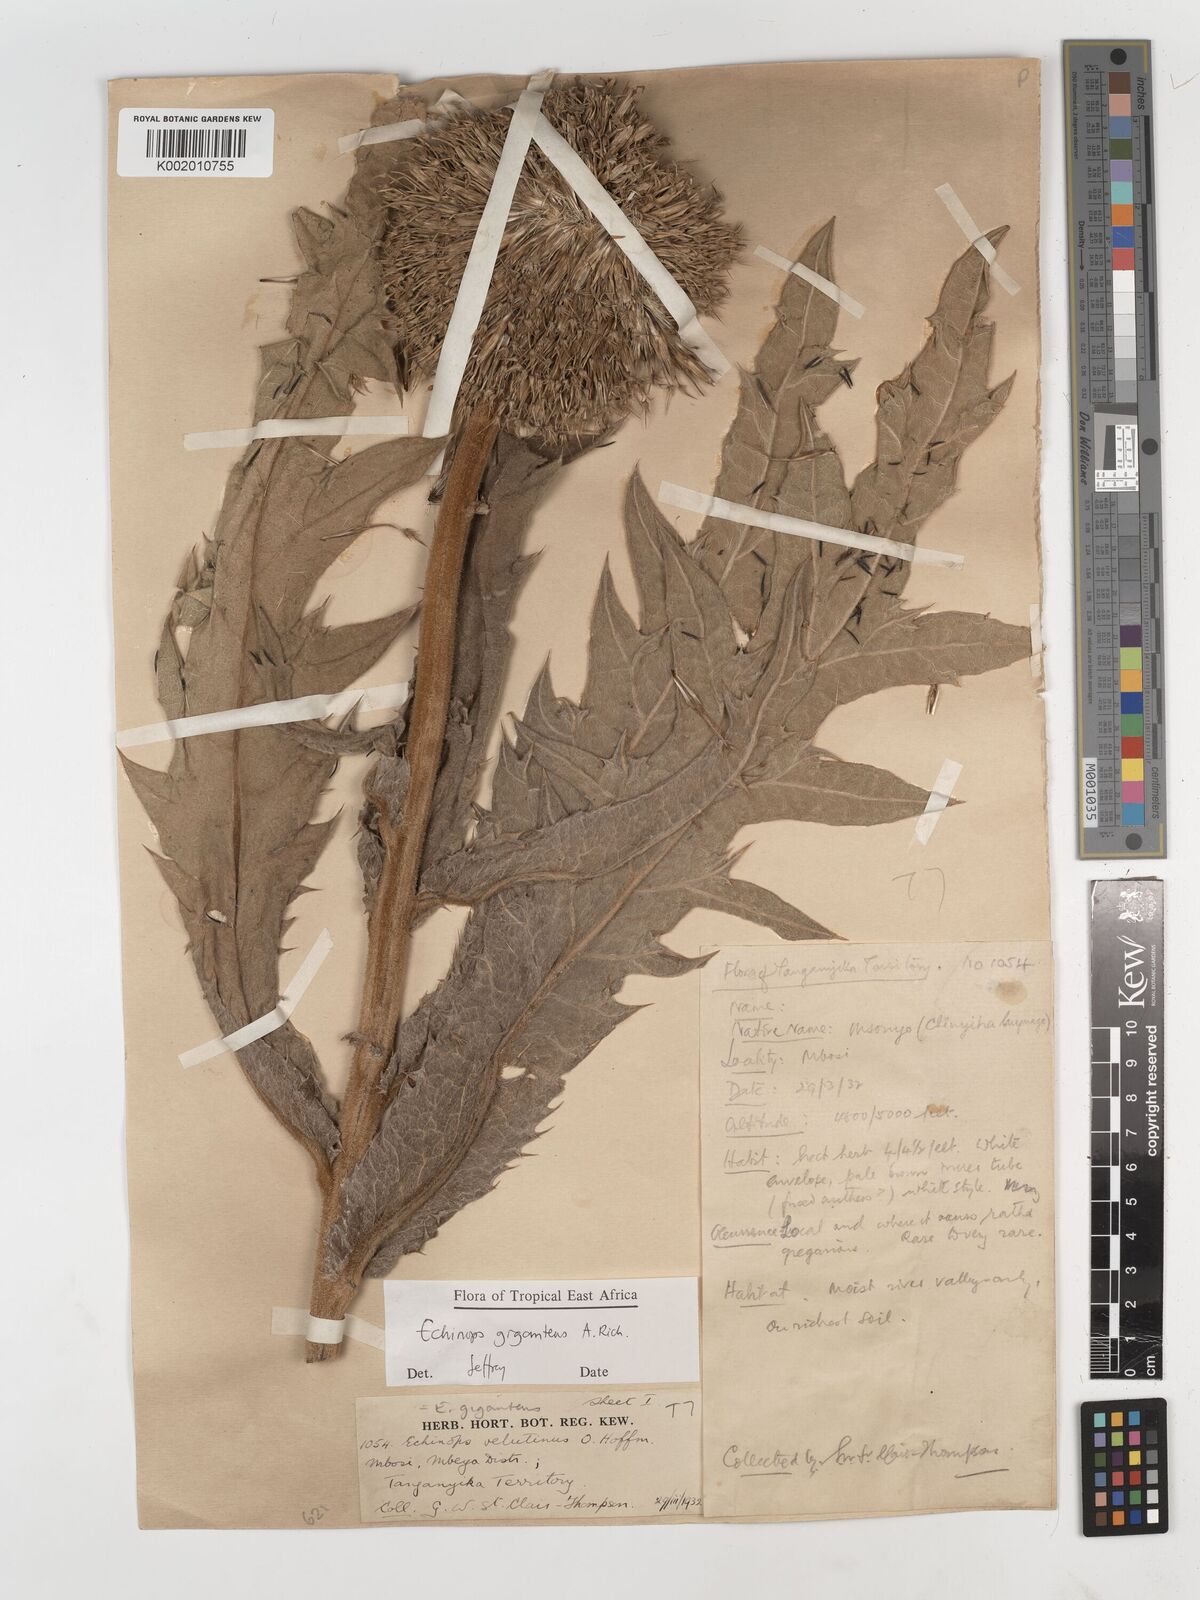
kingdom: Plantae
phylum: Tracheophyta
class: Magnoliopsida
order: Asterales
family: Asteraceae
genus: Echinops
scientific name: Echinops giganteus
